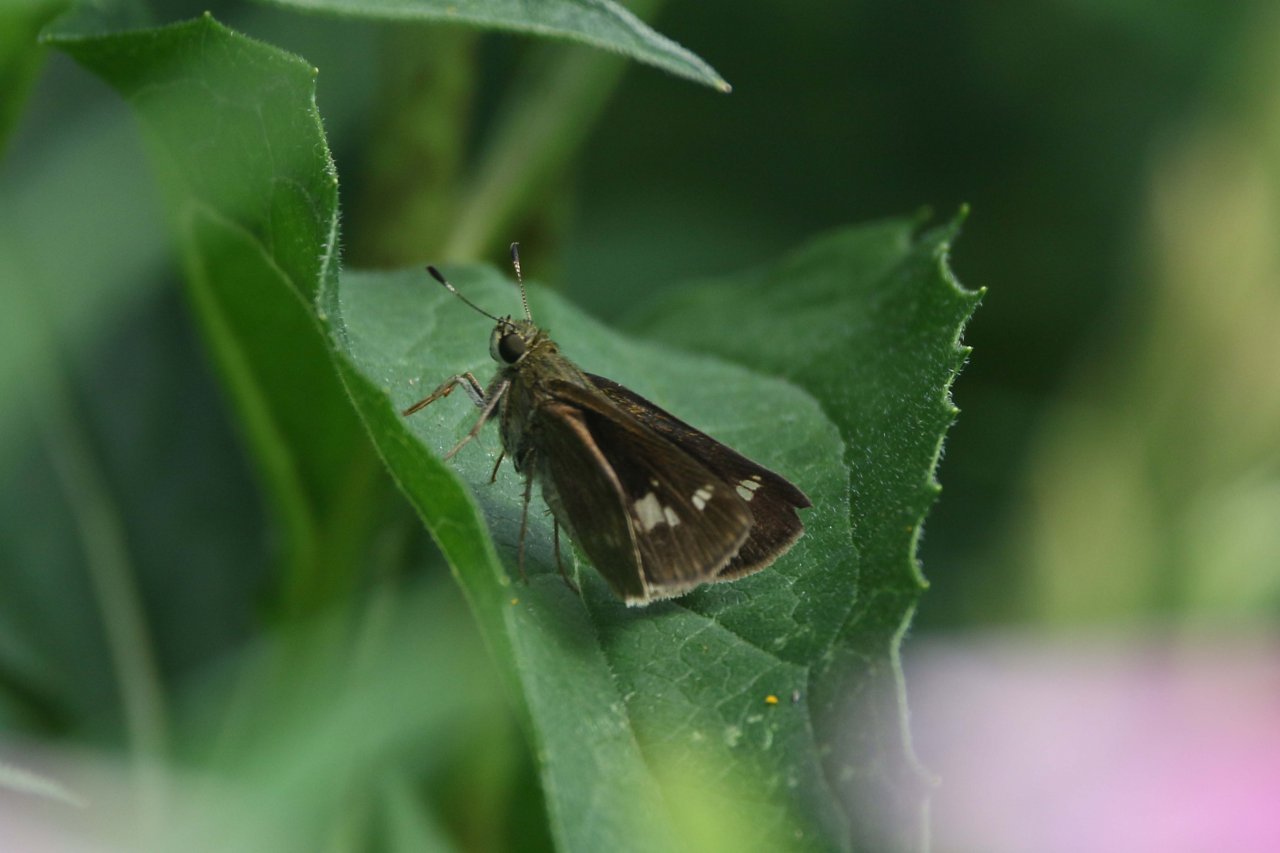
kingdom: Animalia
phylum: Arthropoda
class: Insecta
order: Lepidoptera
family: Hesperiidae
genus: Vernia
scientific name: Vernia verna
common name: Little Glassywing
